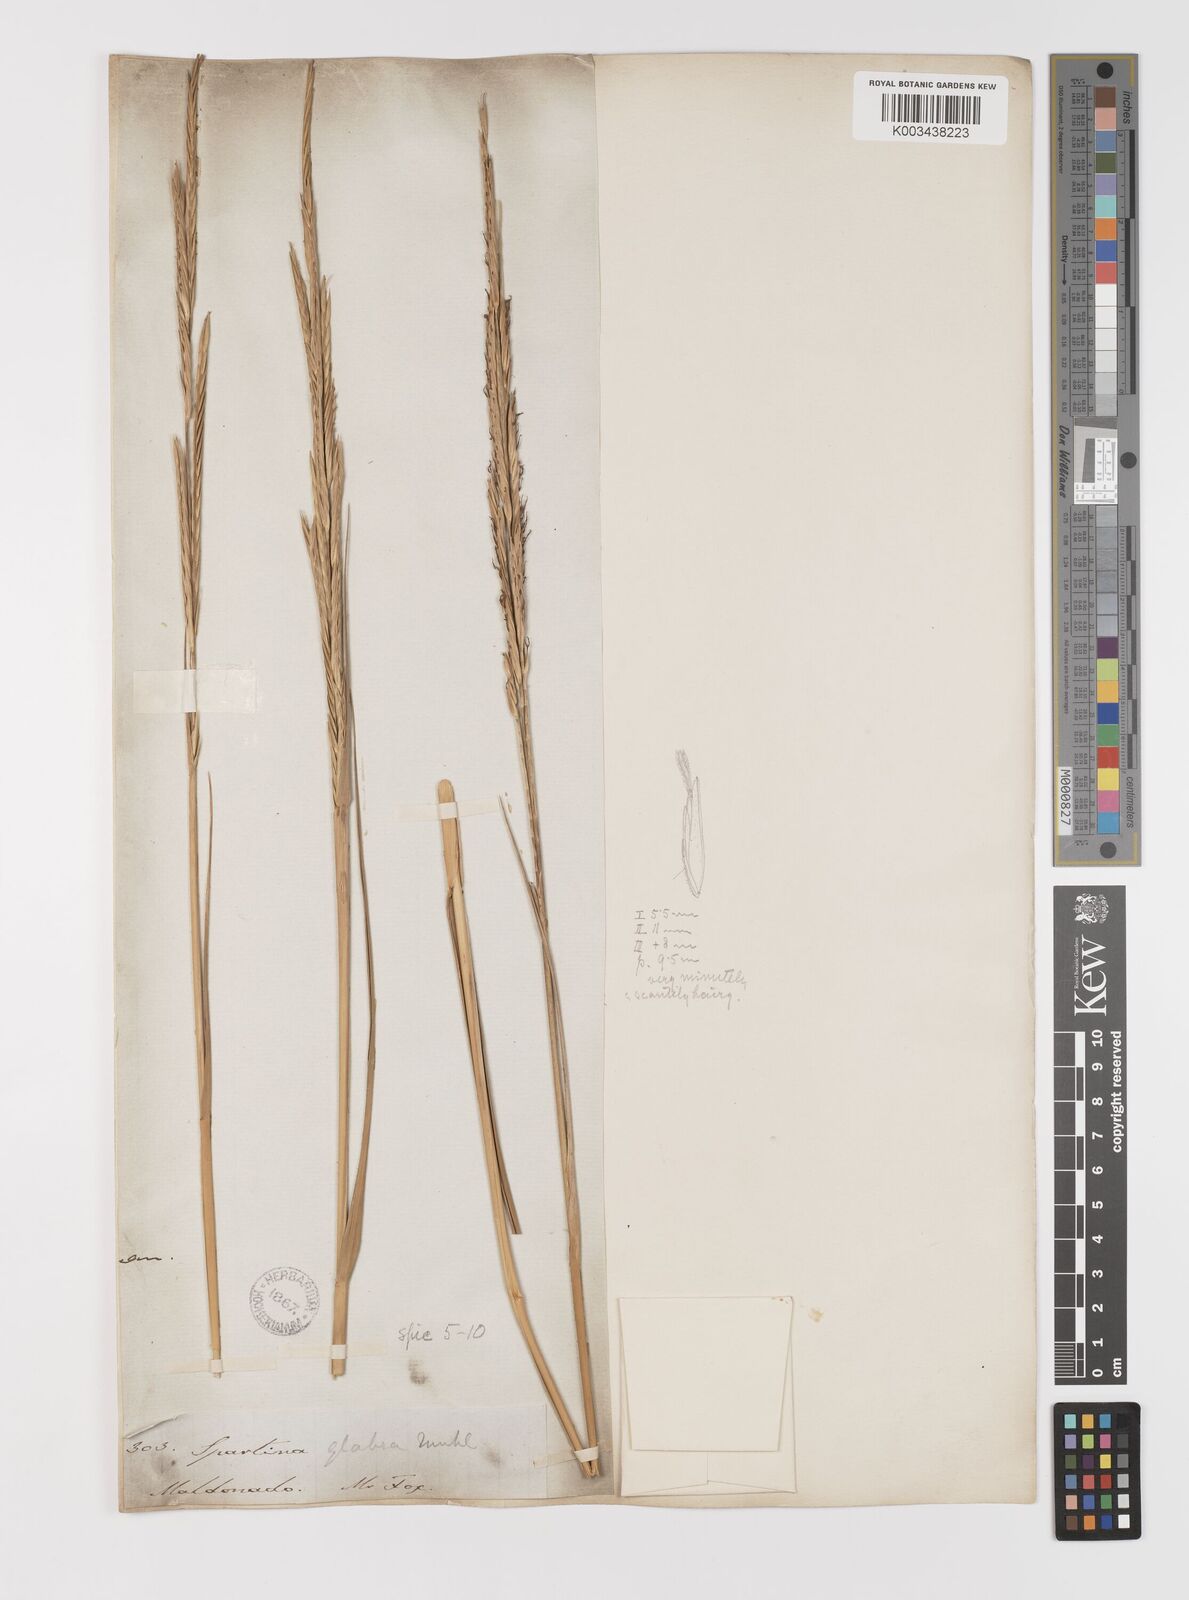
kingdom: Plantae
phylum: Tracheophyta
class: Liliopsida
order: Poales
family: Poaceae
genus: Sporobolus
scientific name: Sporobolus alterniflorus
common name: Atlantic cordgrass
